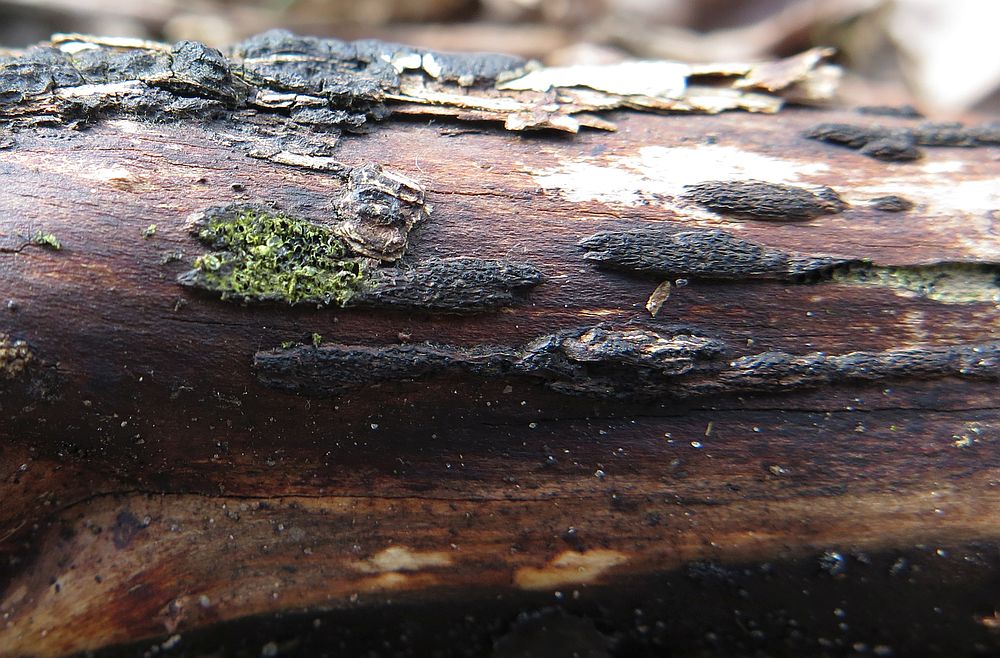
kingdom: Fungi
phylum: Ascomycota
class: Sordariomycetes
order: Xylariales
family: Diatrypaceae
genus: Eutypa
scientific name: Eutypa flavovirens
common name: grønkødet kulskorpe
